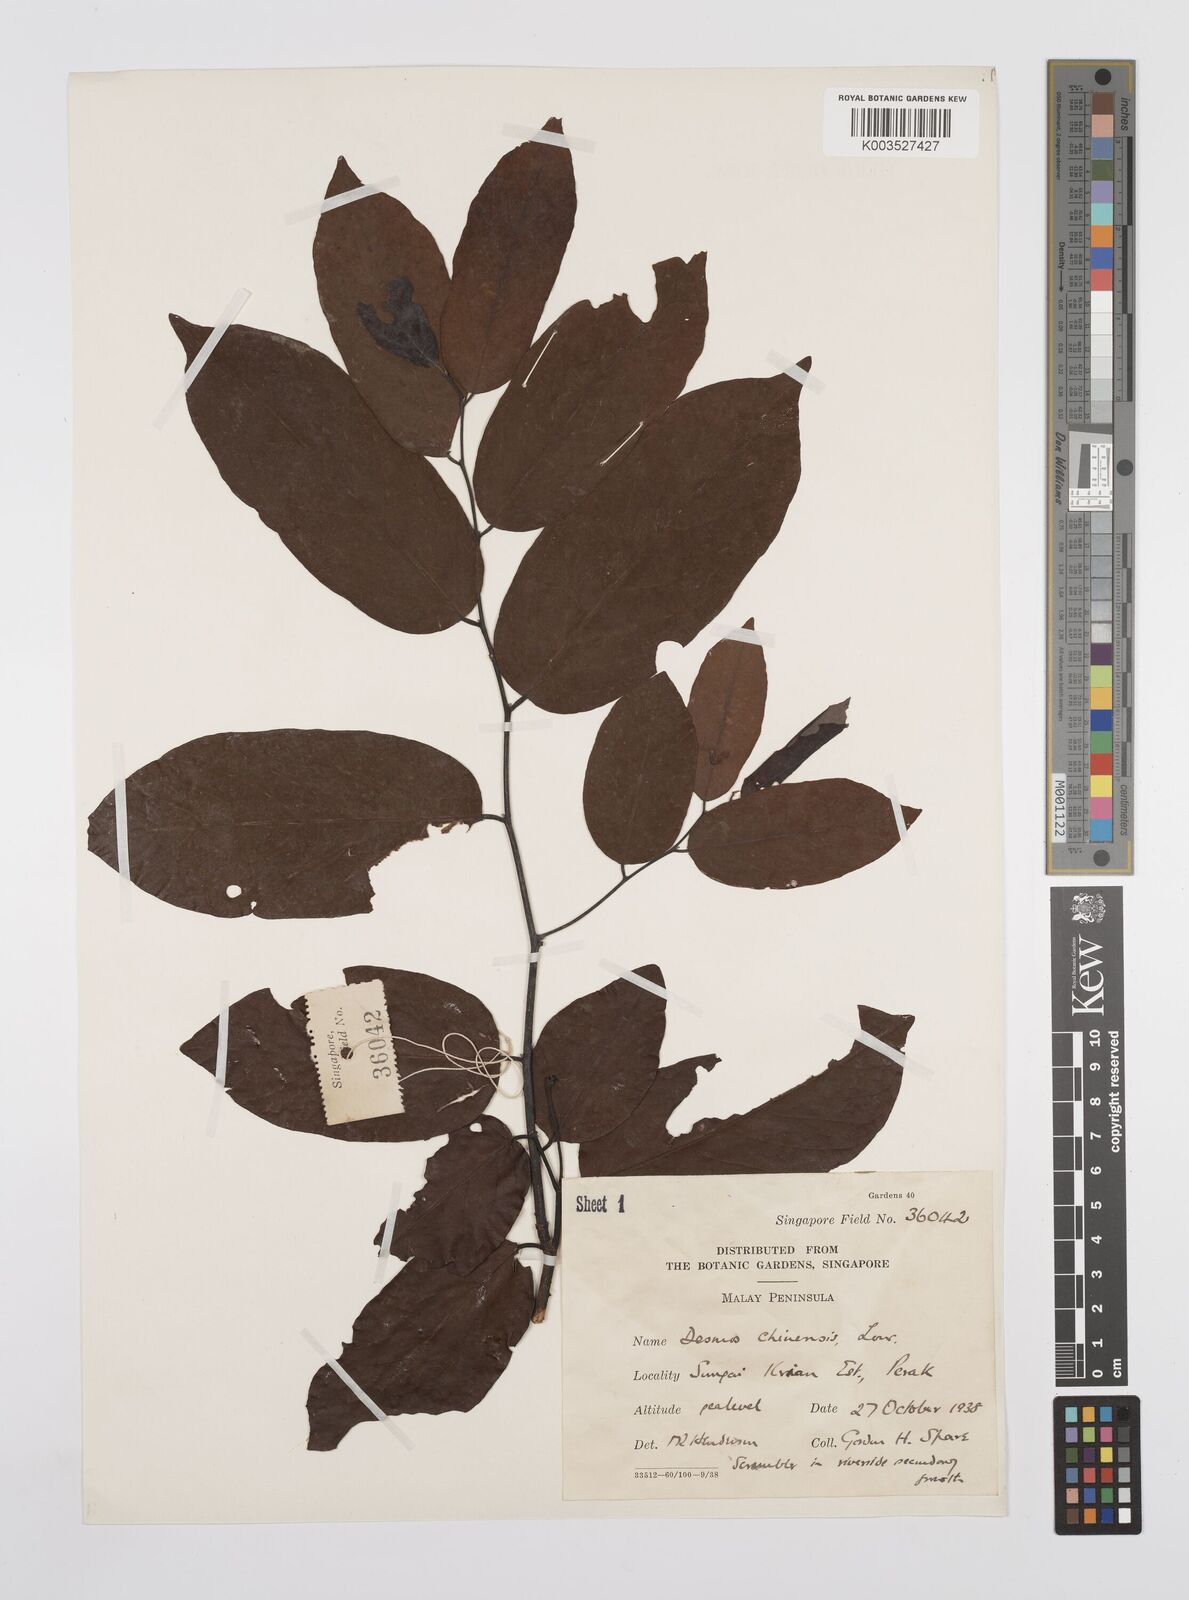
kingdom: Plantae
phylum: Tracheophyta
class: Magnoliopsida
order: Magnoliales
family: Annonaceae
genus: Desmos
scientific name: Desmos chinensis
